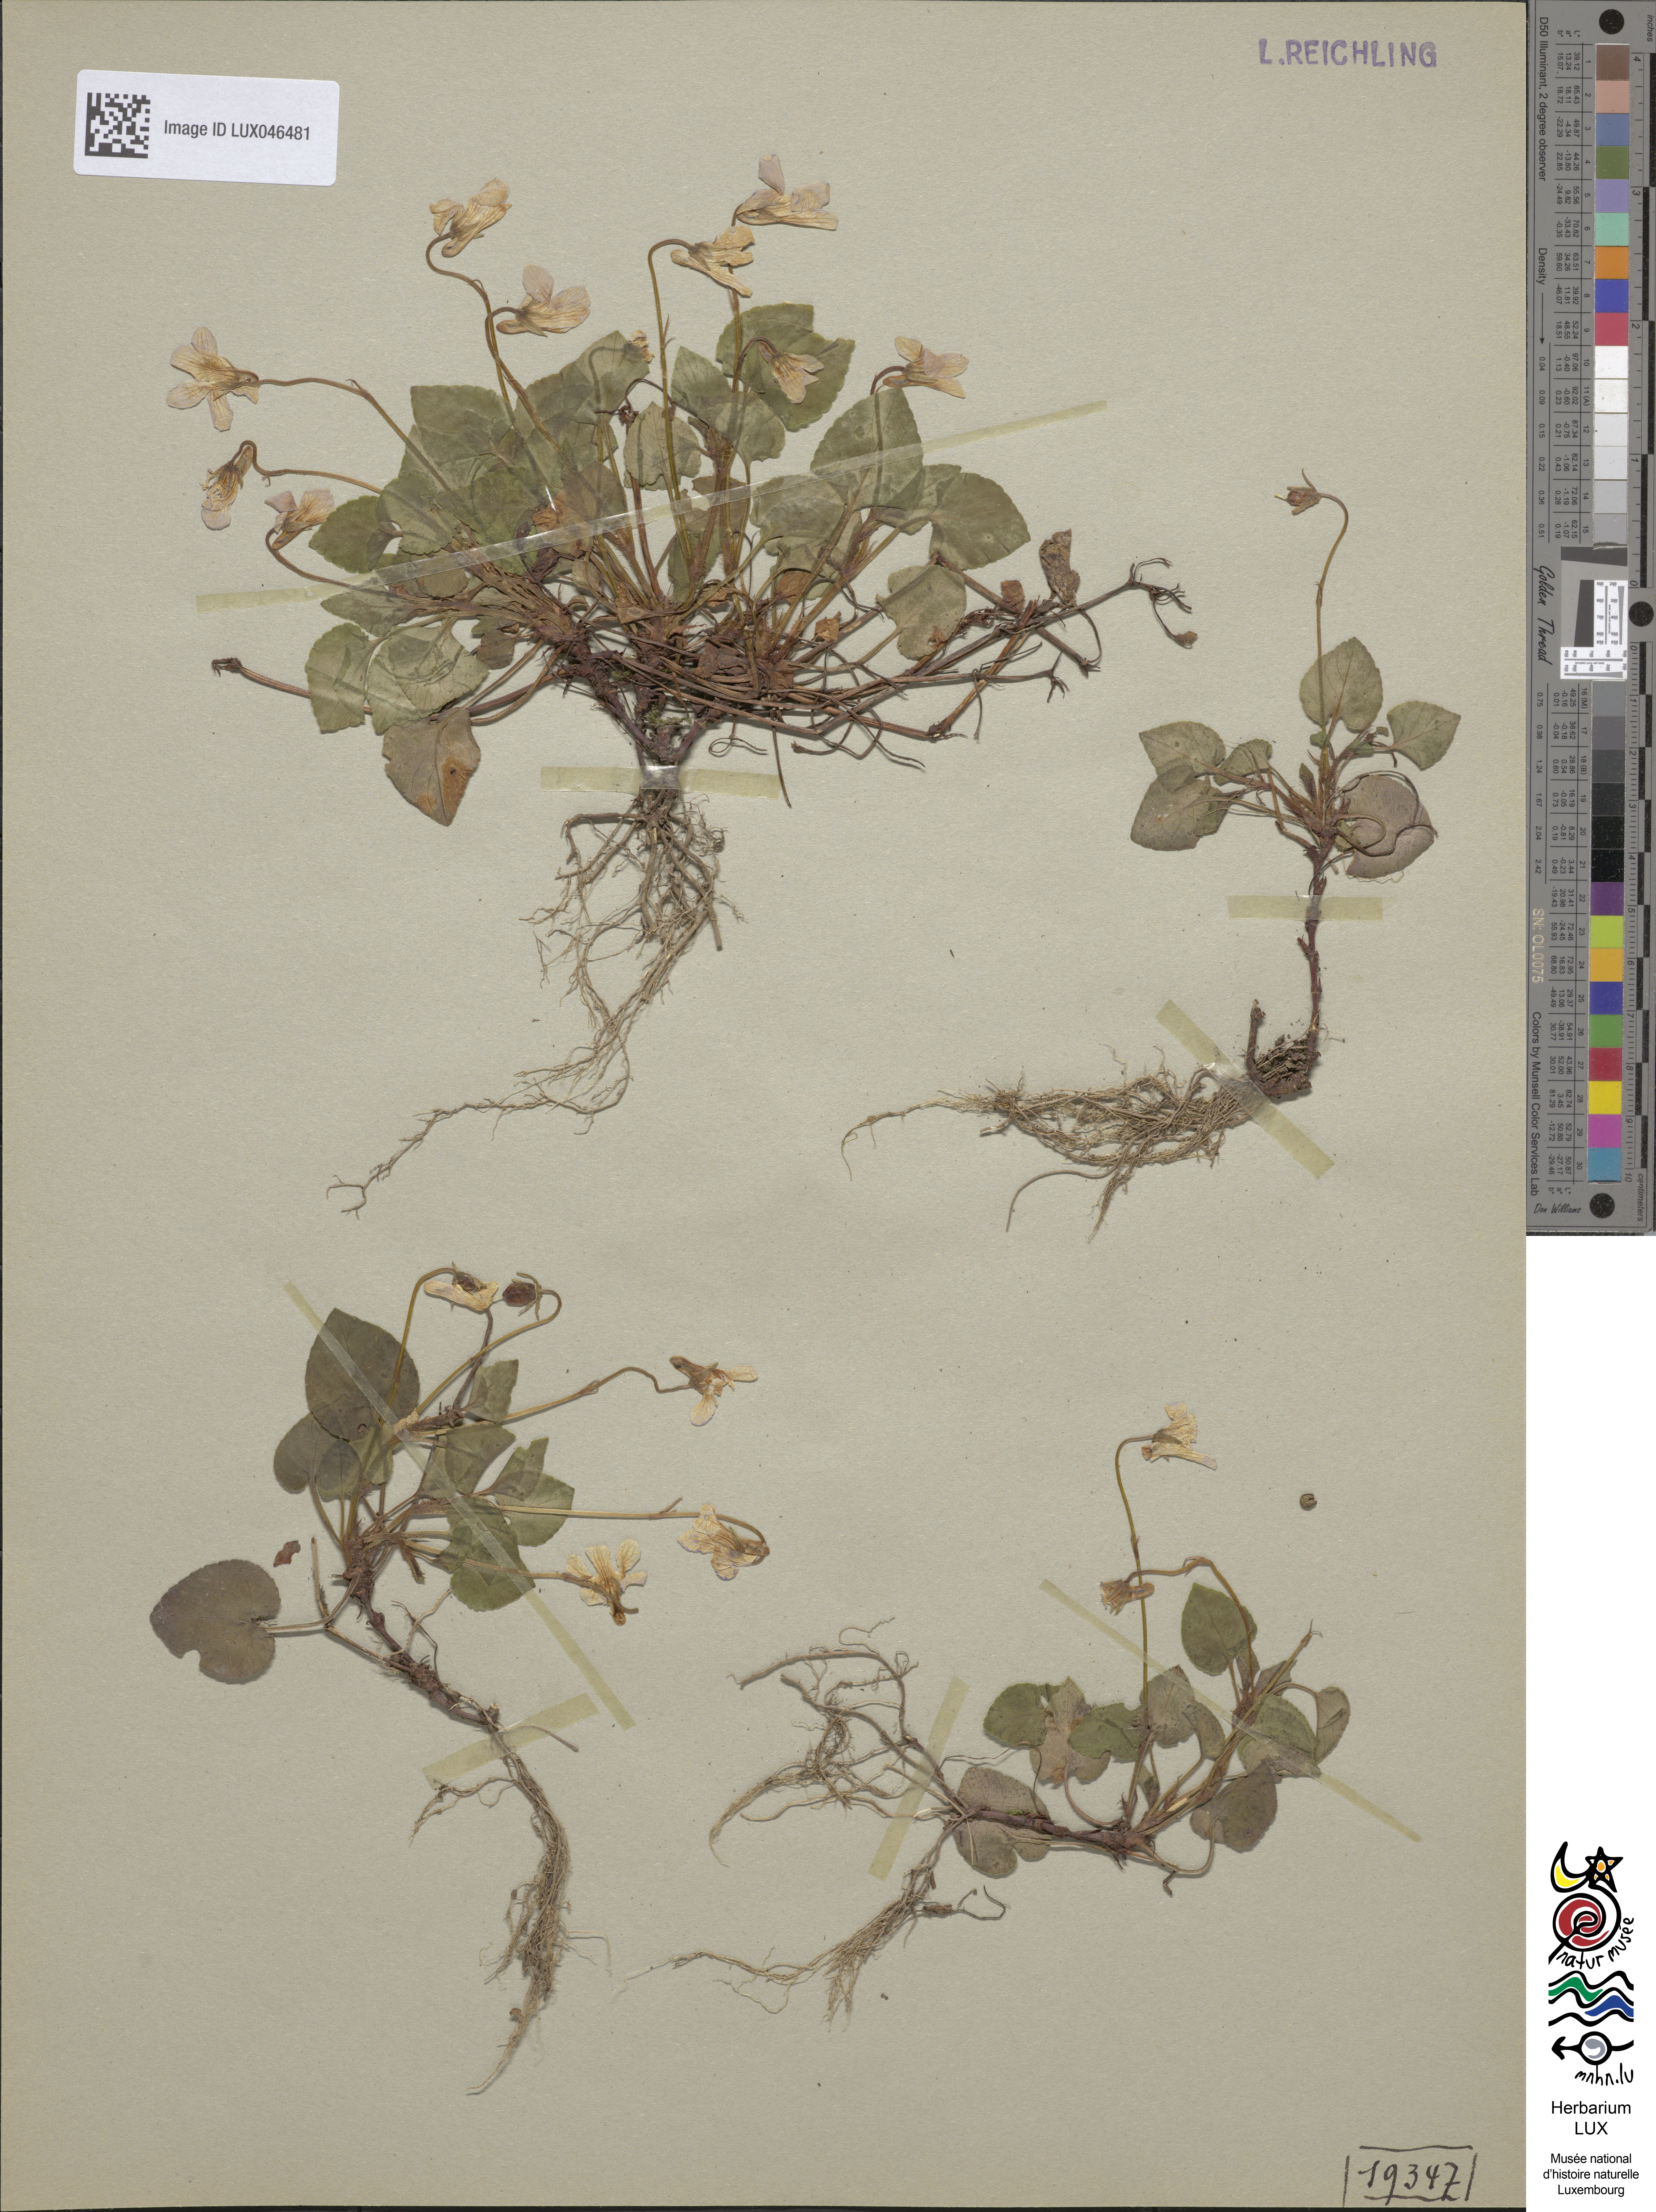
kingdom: Plantae
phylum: Tracheophyta
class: Magnoliopsida
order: Malpighiales
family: Violaceae
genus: Viola
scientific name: Viola reichenbachiana
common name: Early dog-violet
